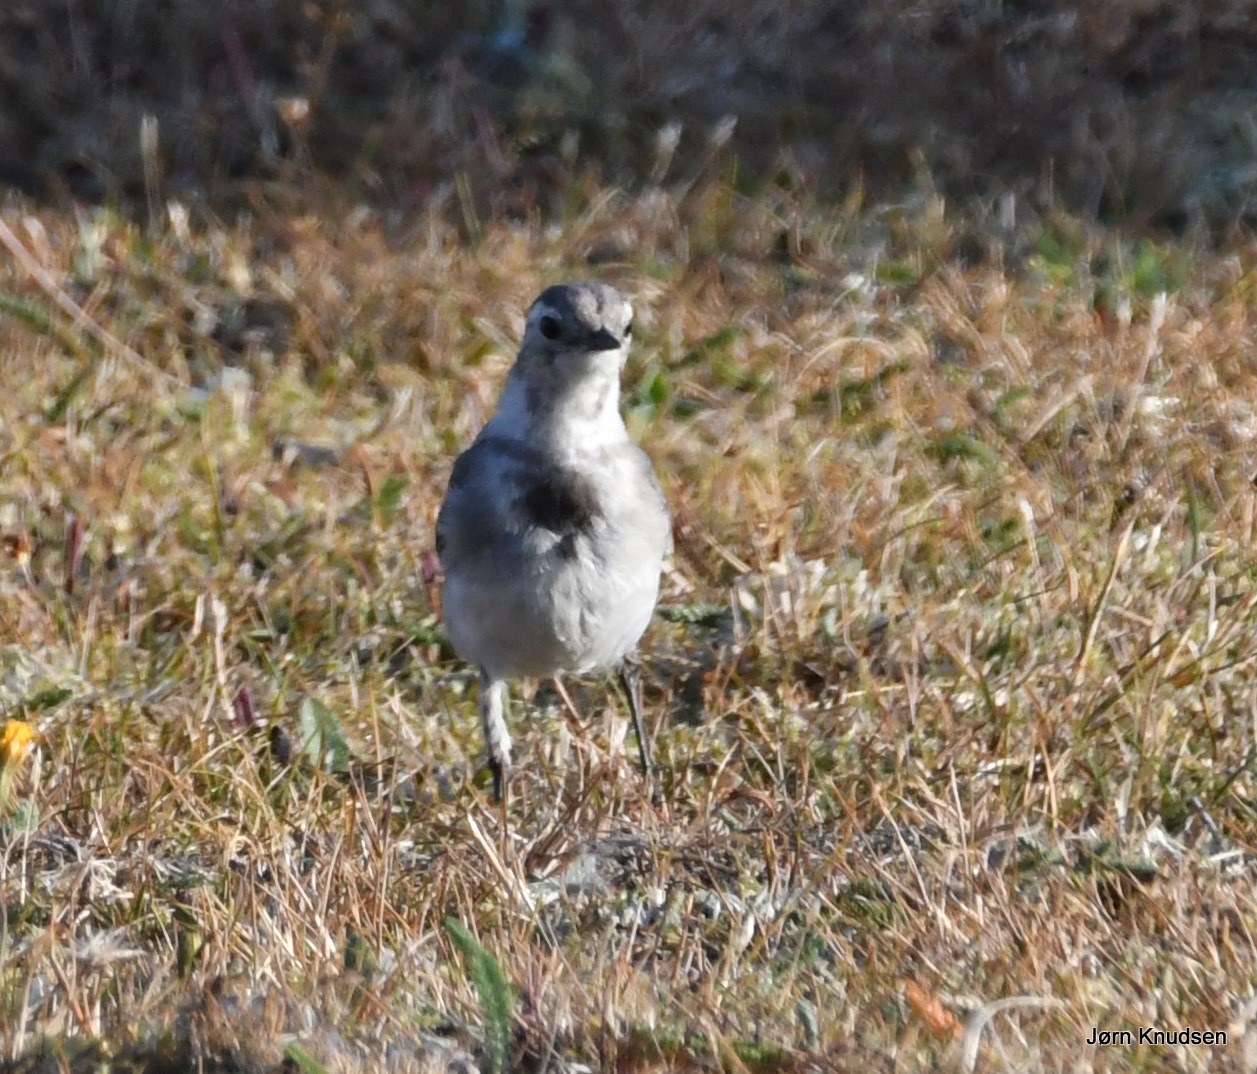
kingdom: Animalia
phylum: Chordata
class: Aves
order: Passeriformes
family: Motacillidae
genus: Motacilla
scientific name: Motacilla alba
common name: Hvid vipstjert
